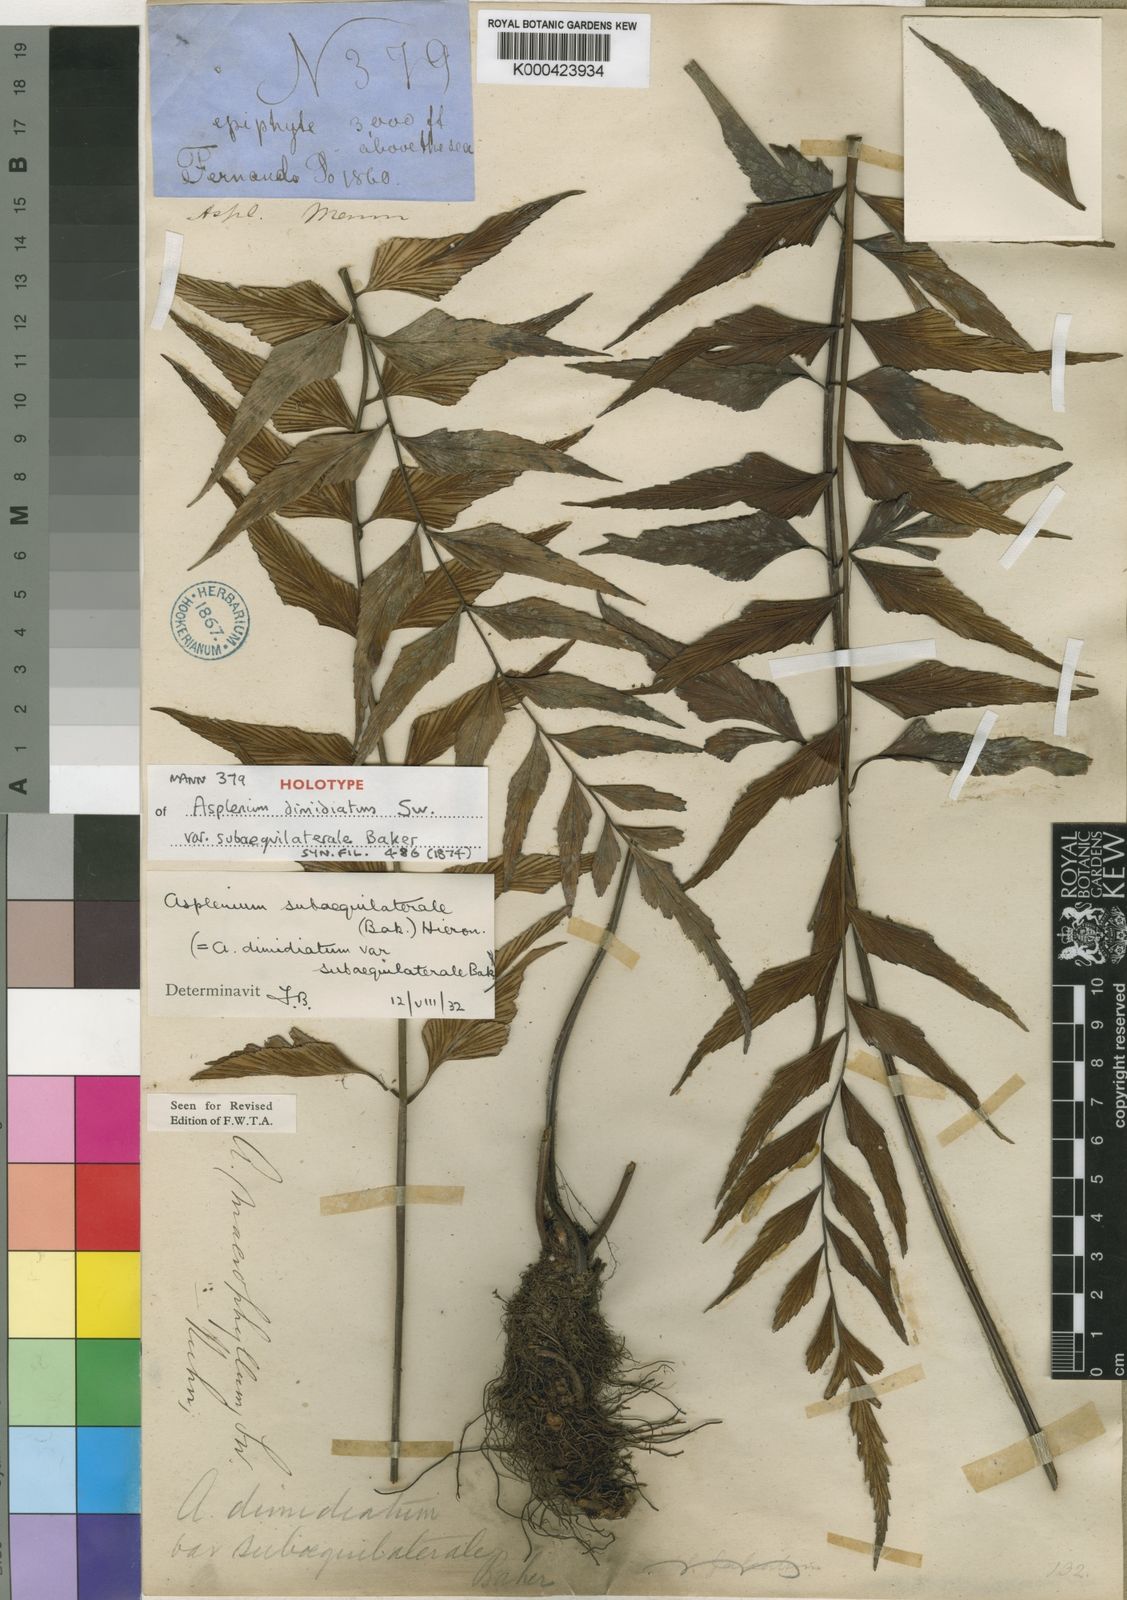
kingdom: Plantae
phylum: Tracheophyta
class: Polypodiopsida
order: Polypodiales
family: Aspleniaceae
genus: Asplenium
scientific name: Asplenium subaequilaterale
